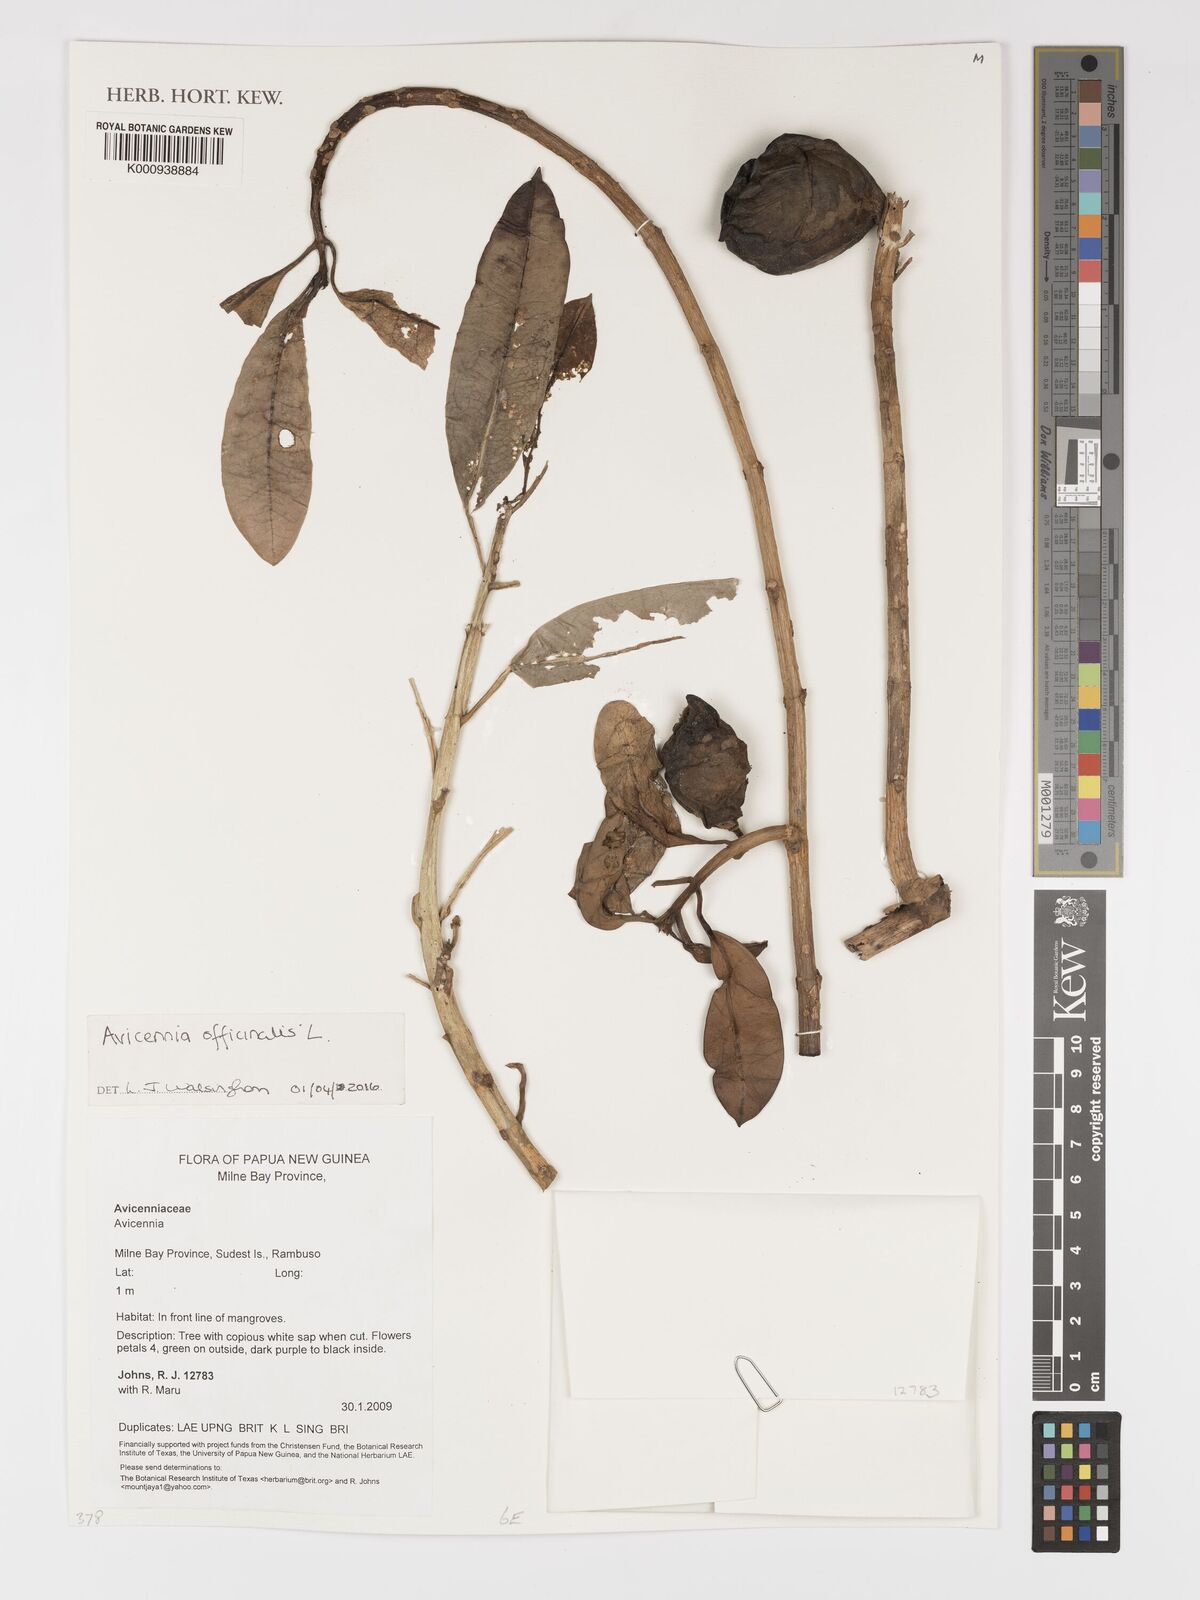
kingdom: Plantae
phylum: Tracheophyta
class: Magnoliopsida
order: Lamiales
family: Acanthaceae
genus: Avicennia
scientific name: Avicennia officinalis
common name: Baen
